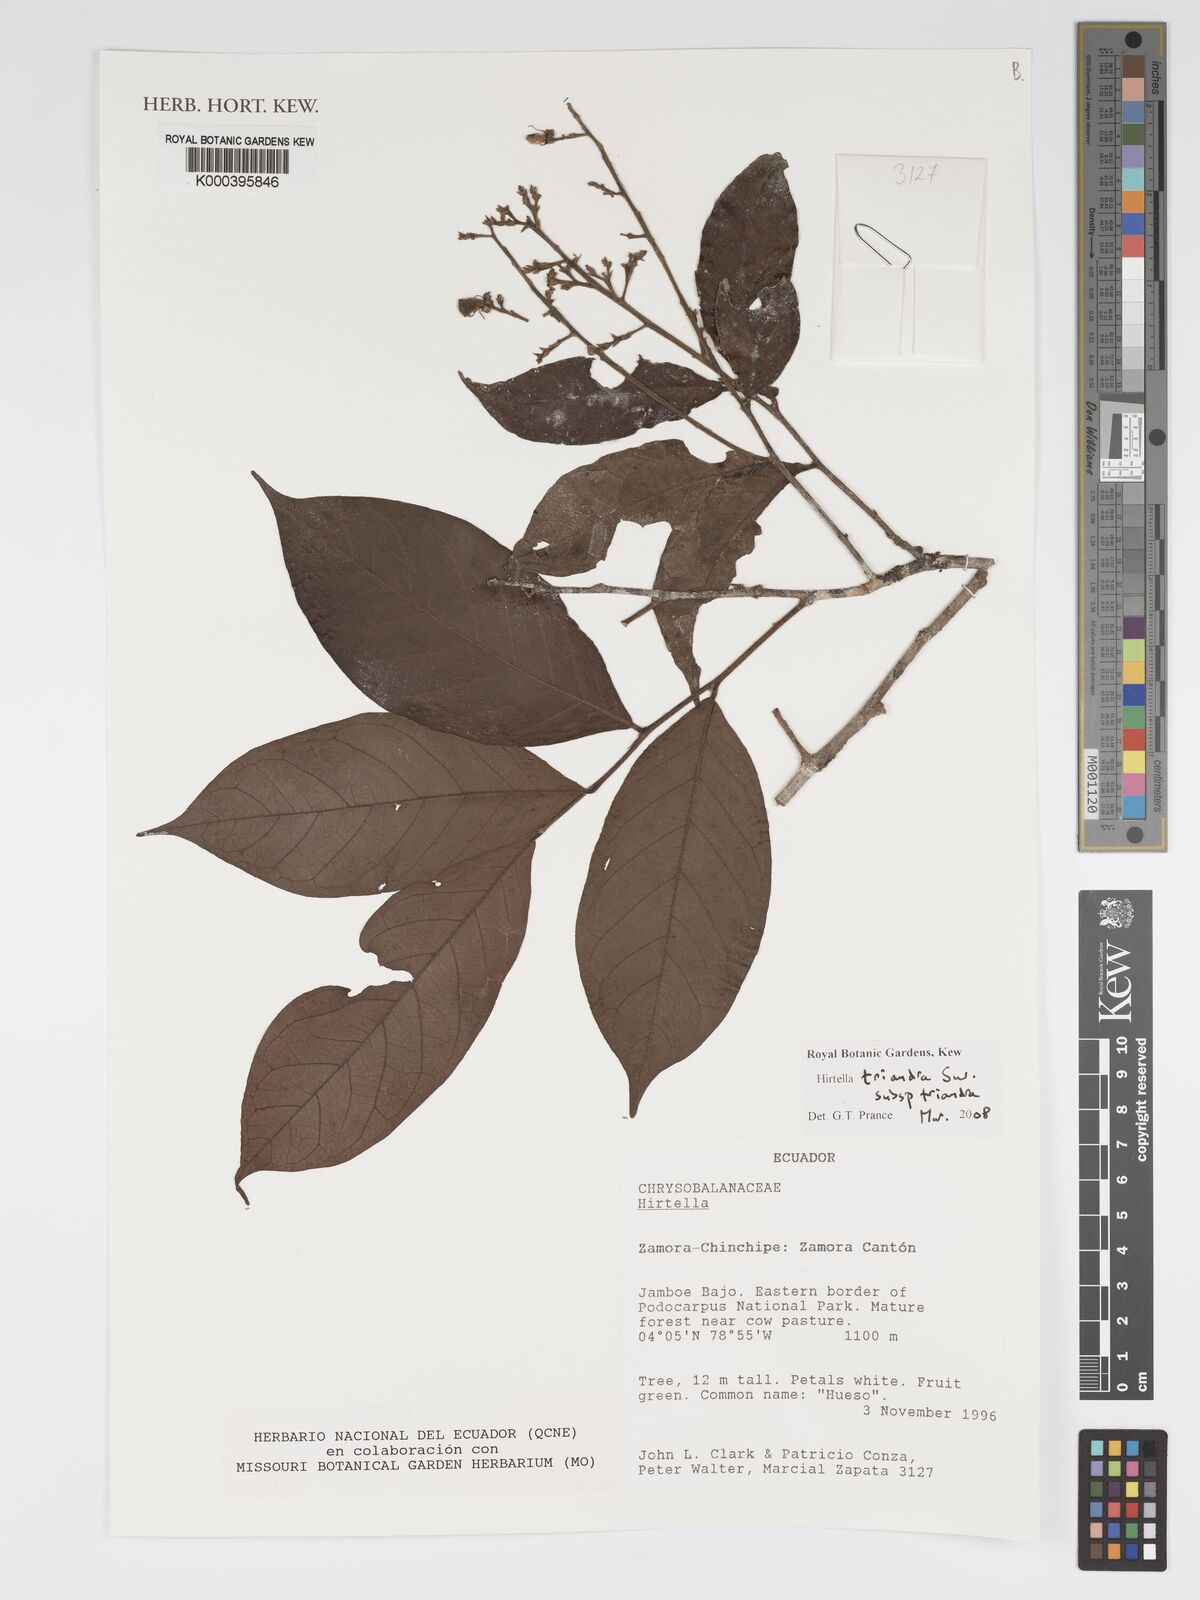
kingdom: Plantae
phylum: Tracheophyta
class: Magnoliopsida
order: Malpighiales
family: Chrysobalanaceae
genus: Hirtella
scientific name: Hirtella triandra
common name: Hairy plum
